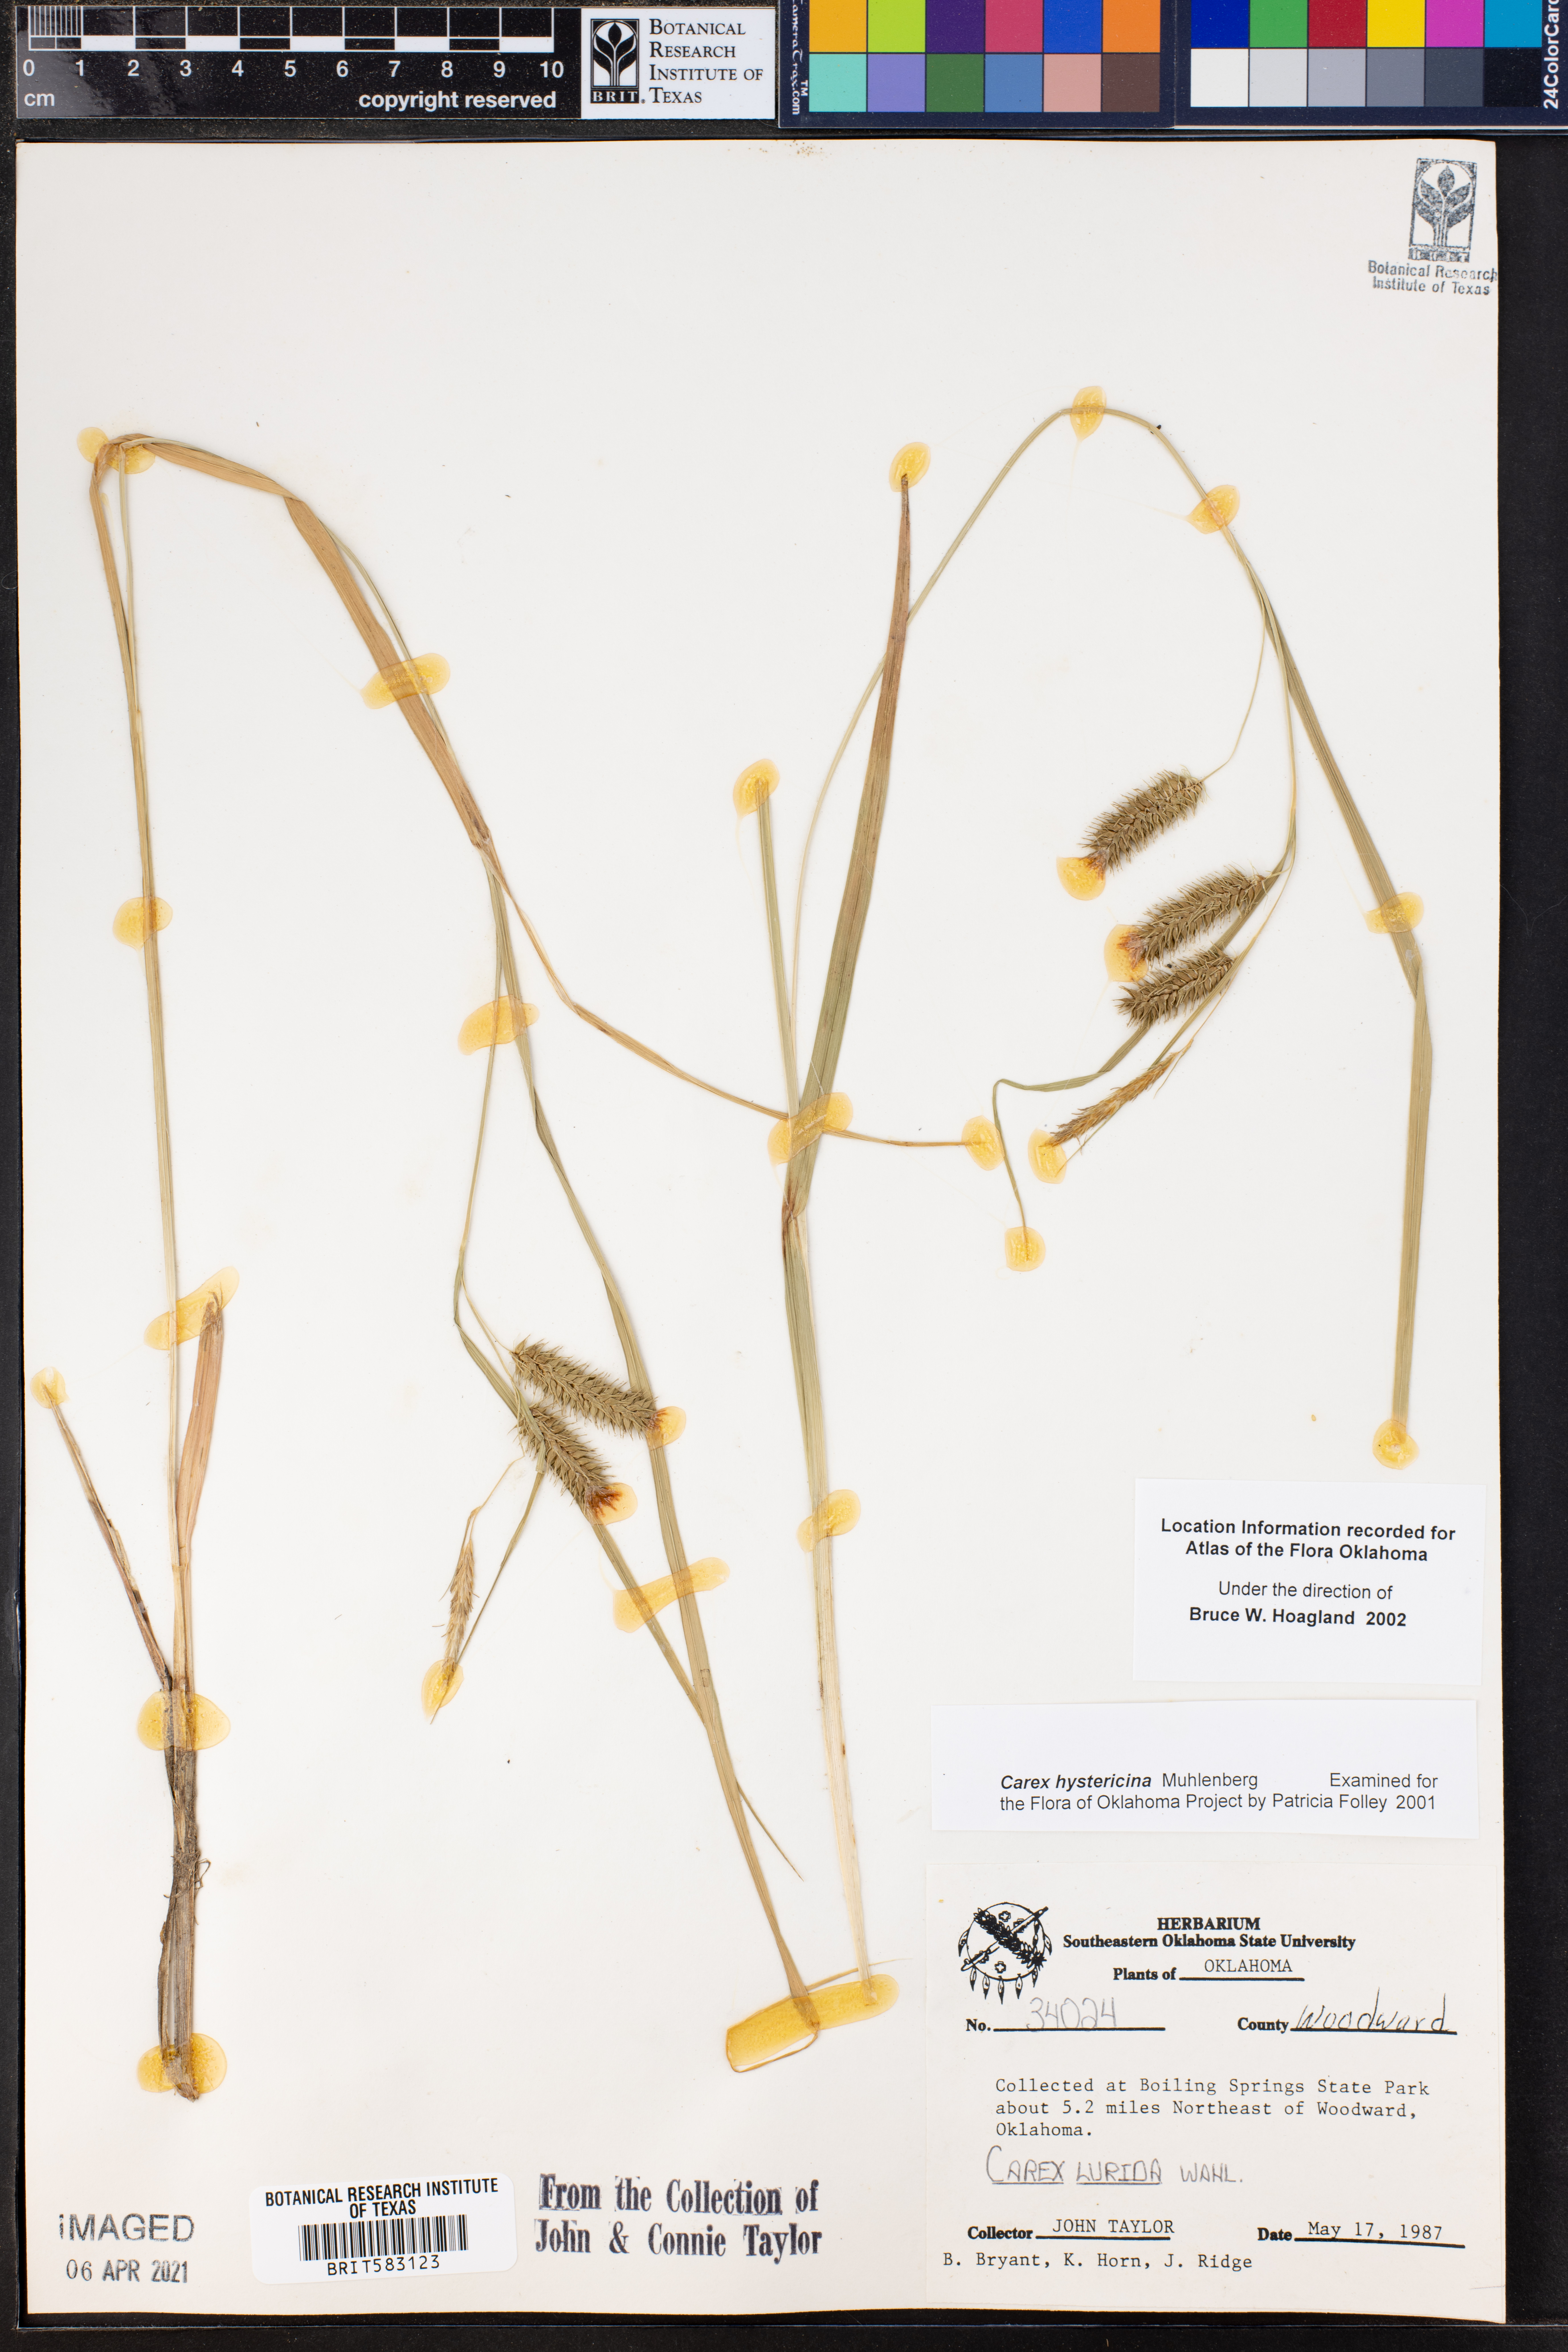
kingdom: Plantae
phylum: Tracheophyta
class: Liliopsida
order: Poales
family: Cyperaceae
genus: Carex
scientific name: Carex hystericina
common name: Bottlebrush sedge
